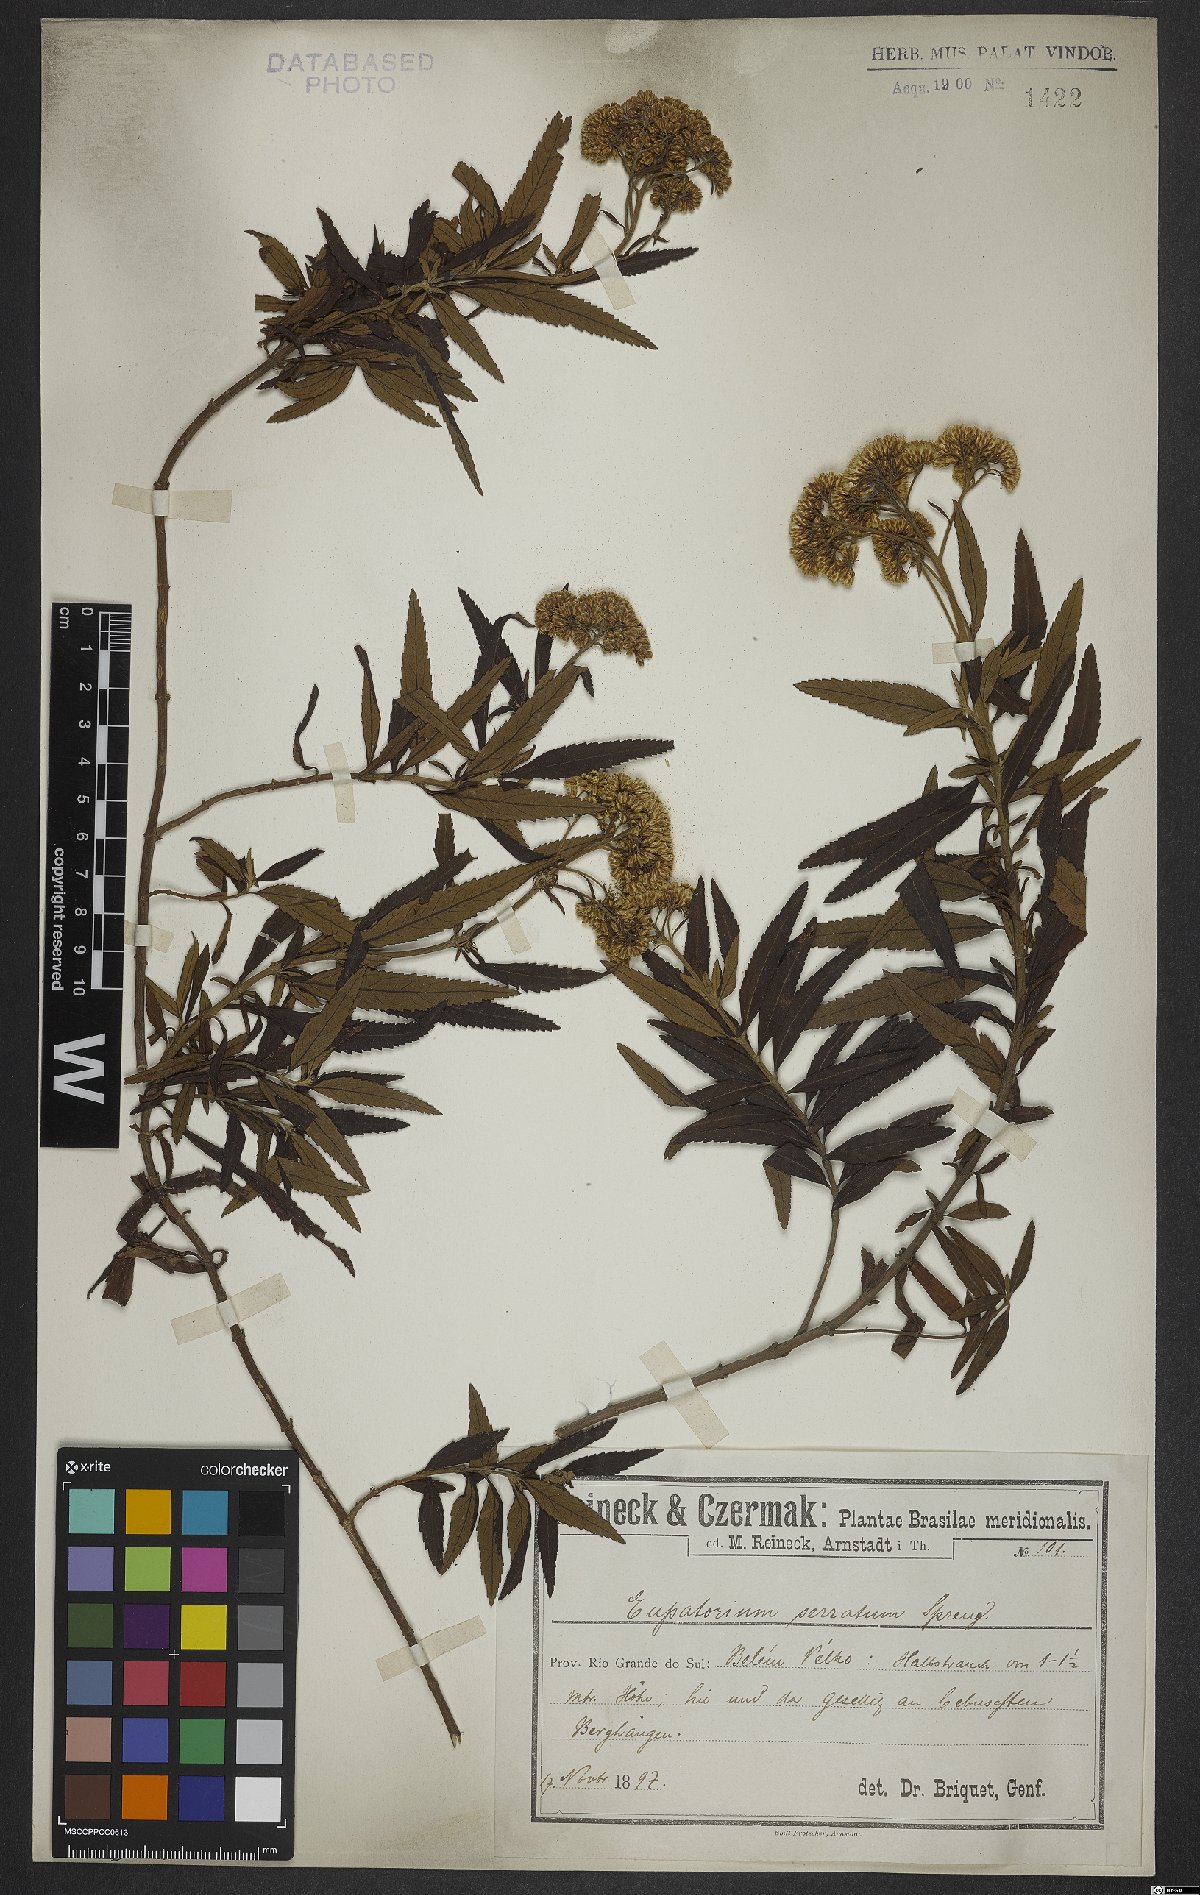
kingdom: Plantae
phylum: Tracheophyta
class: Magnoliopsida
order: Asterales
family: Asteraceae
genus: Grazielia
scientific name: Grazielia serrata
